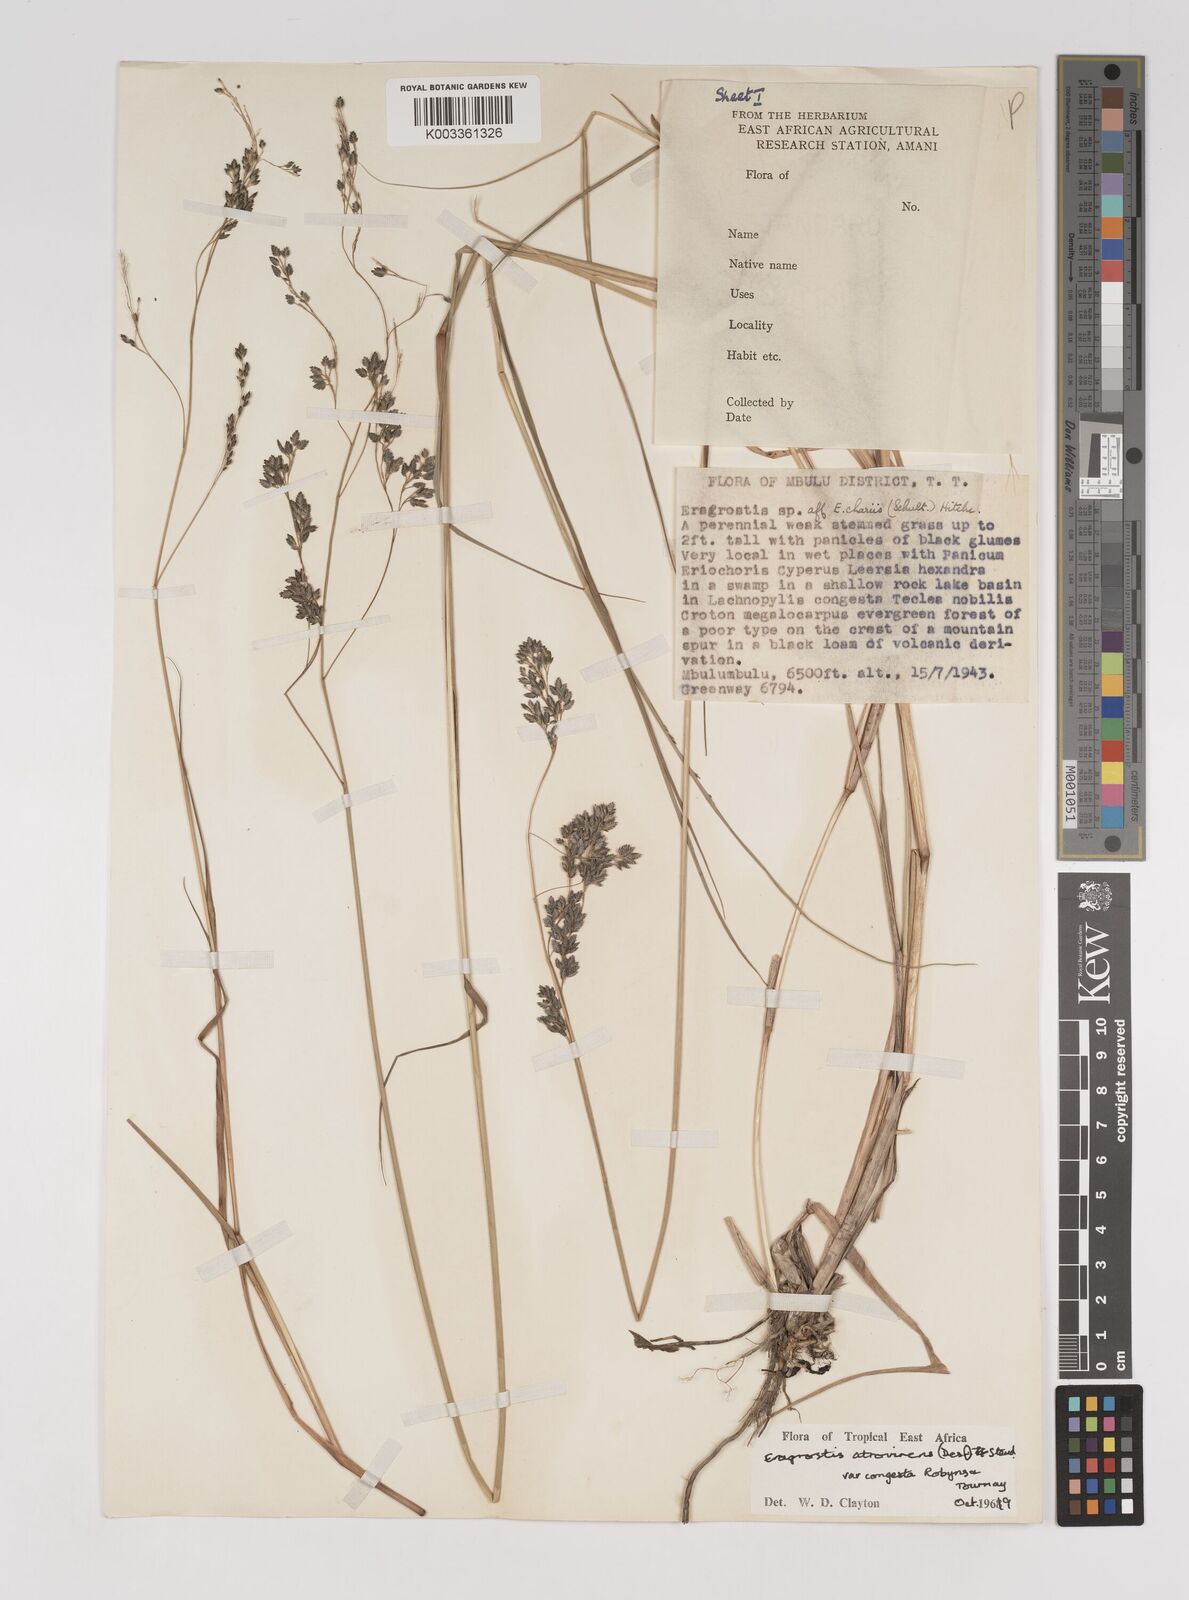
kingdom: Plantae
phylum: Tracheophyta
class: Liliopsida
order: Poales
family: Poaceae
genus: Eragrostis
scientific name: Eragrostis botryodes
